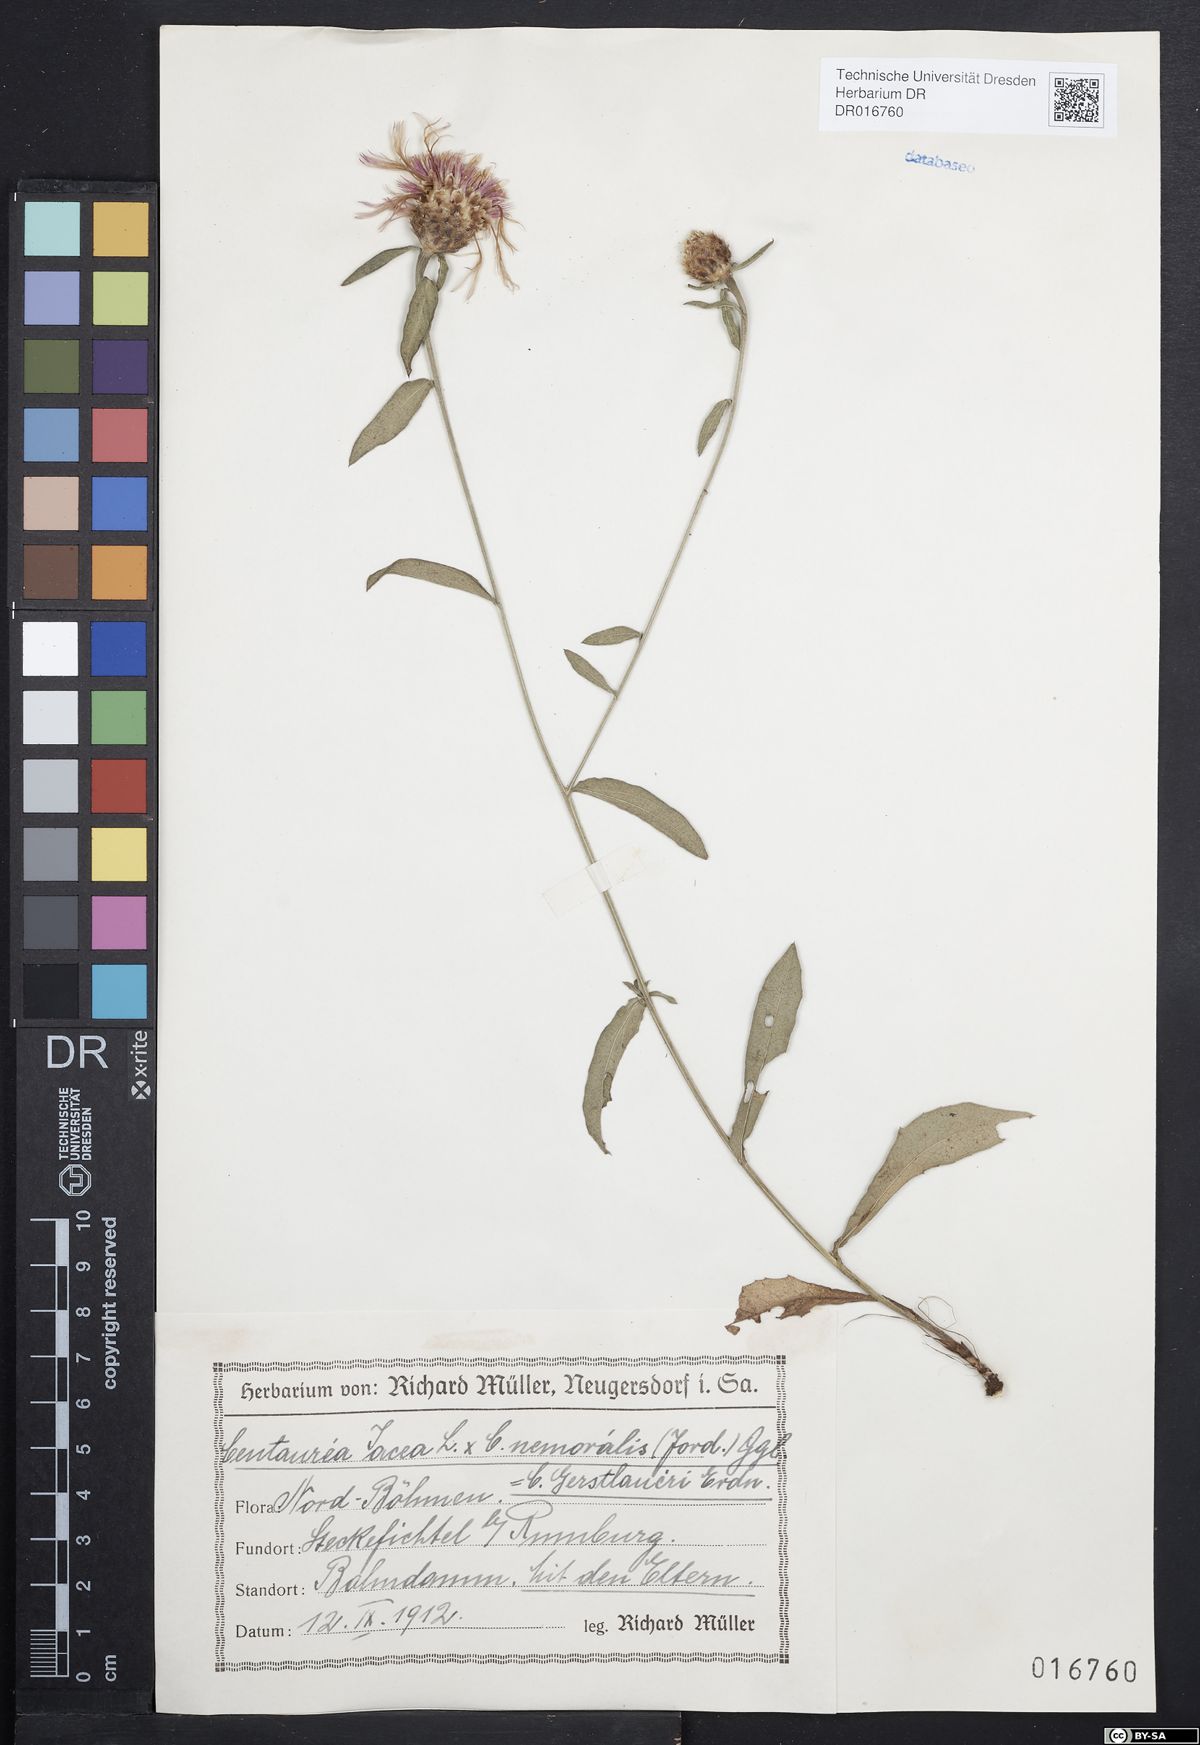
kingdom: Plantae
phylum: Tracheophyta
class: Magnoliopsida
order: Asterales
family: Asteraceae
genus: Centaurea
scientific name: Centaurea jacea
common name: Brown knapweed
